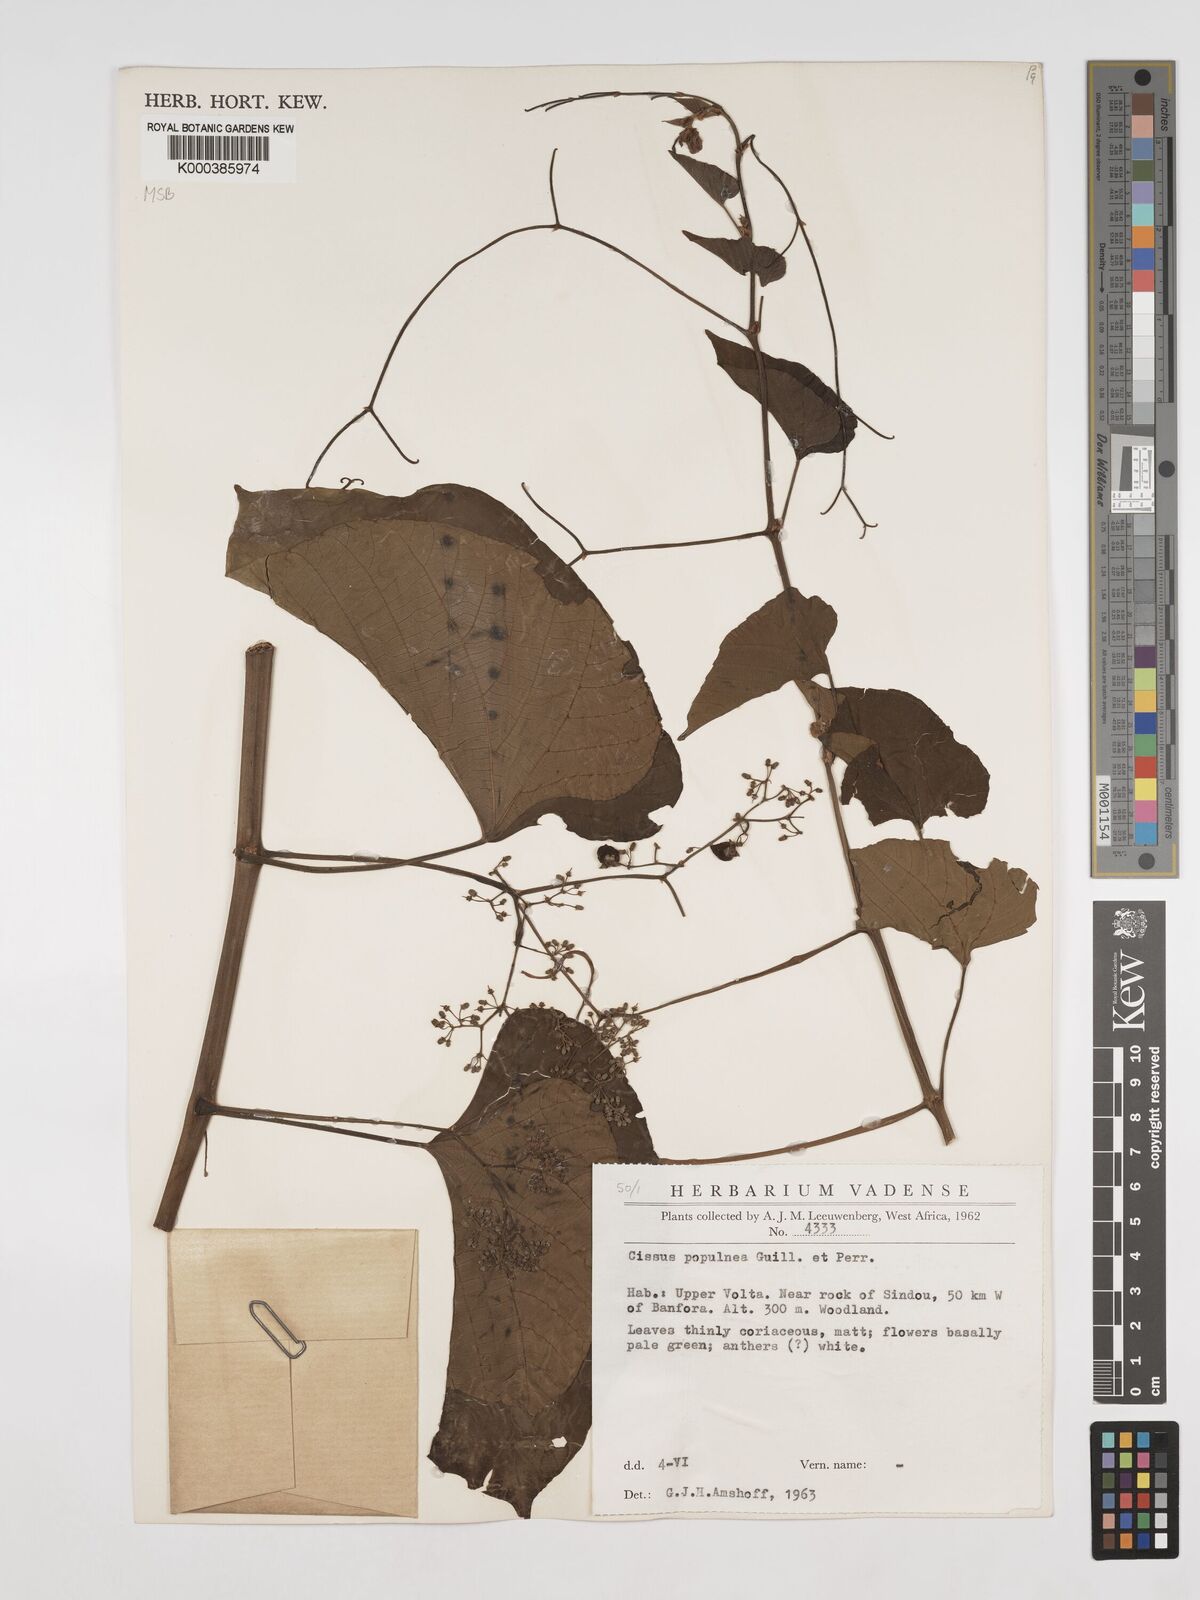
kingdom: Plantae
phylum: Tracheophyta
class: Magnoliopsida
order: Vitales
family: Vitaceae
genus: Cissus
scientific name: Cissus populnea
